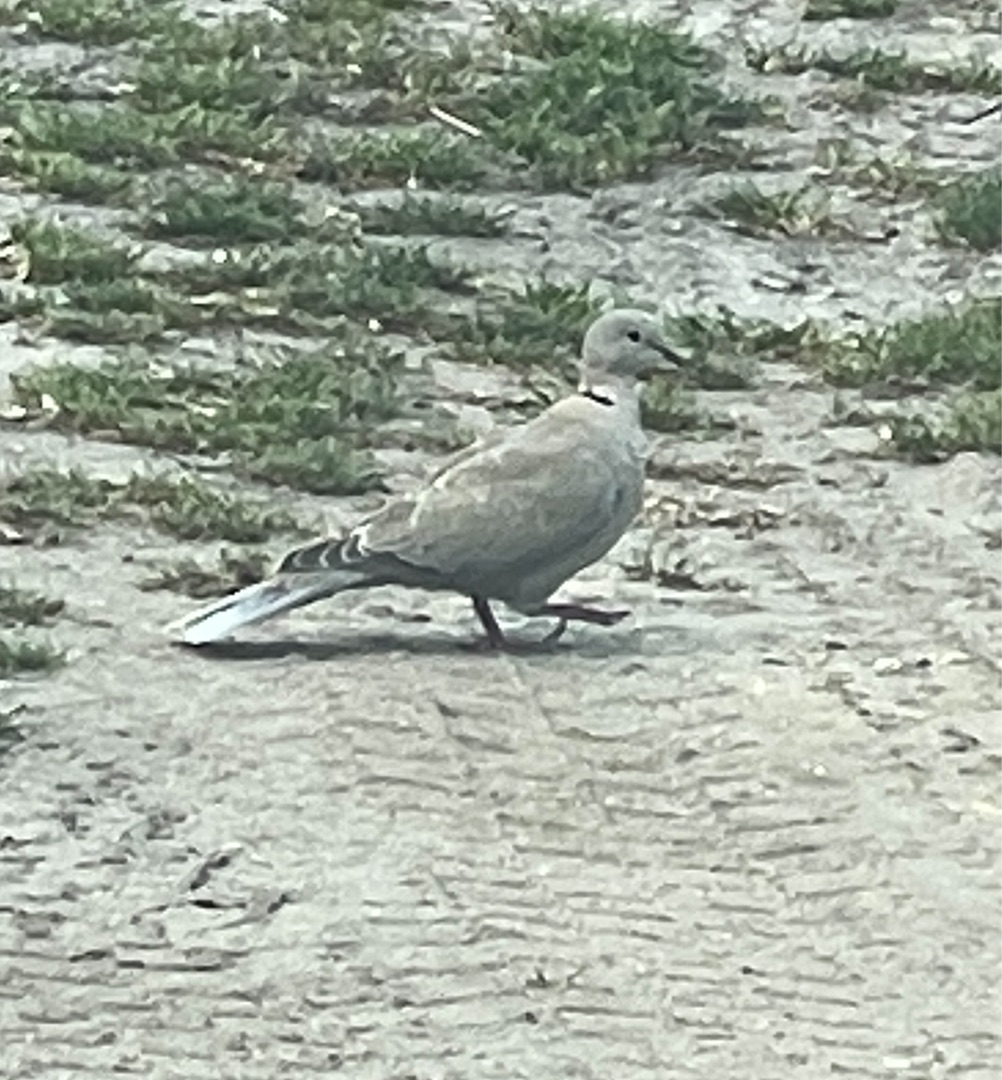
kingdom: Animalia
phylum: Chordata
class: Aves
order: Columbiformes
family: Columbidae
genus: Streptopelia
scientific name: Streptopelia decaocto
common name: Tyrkerdue
